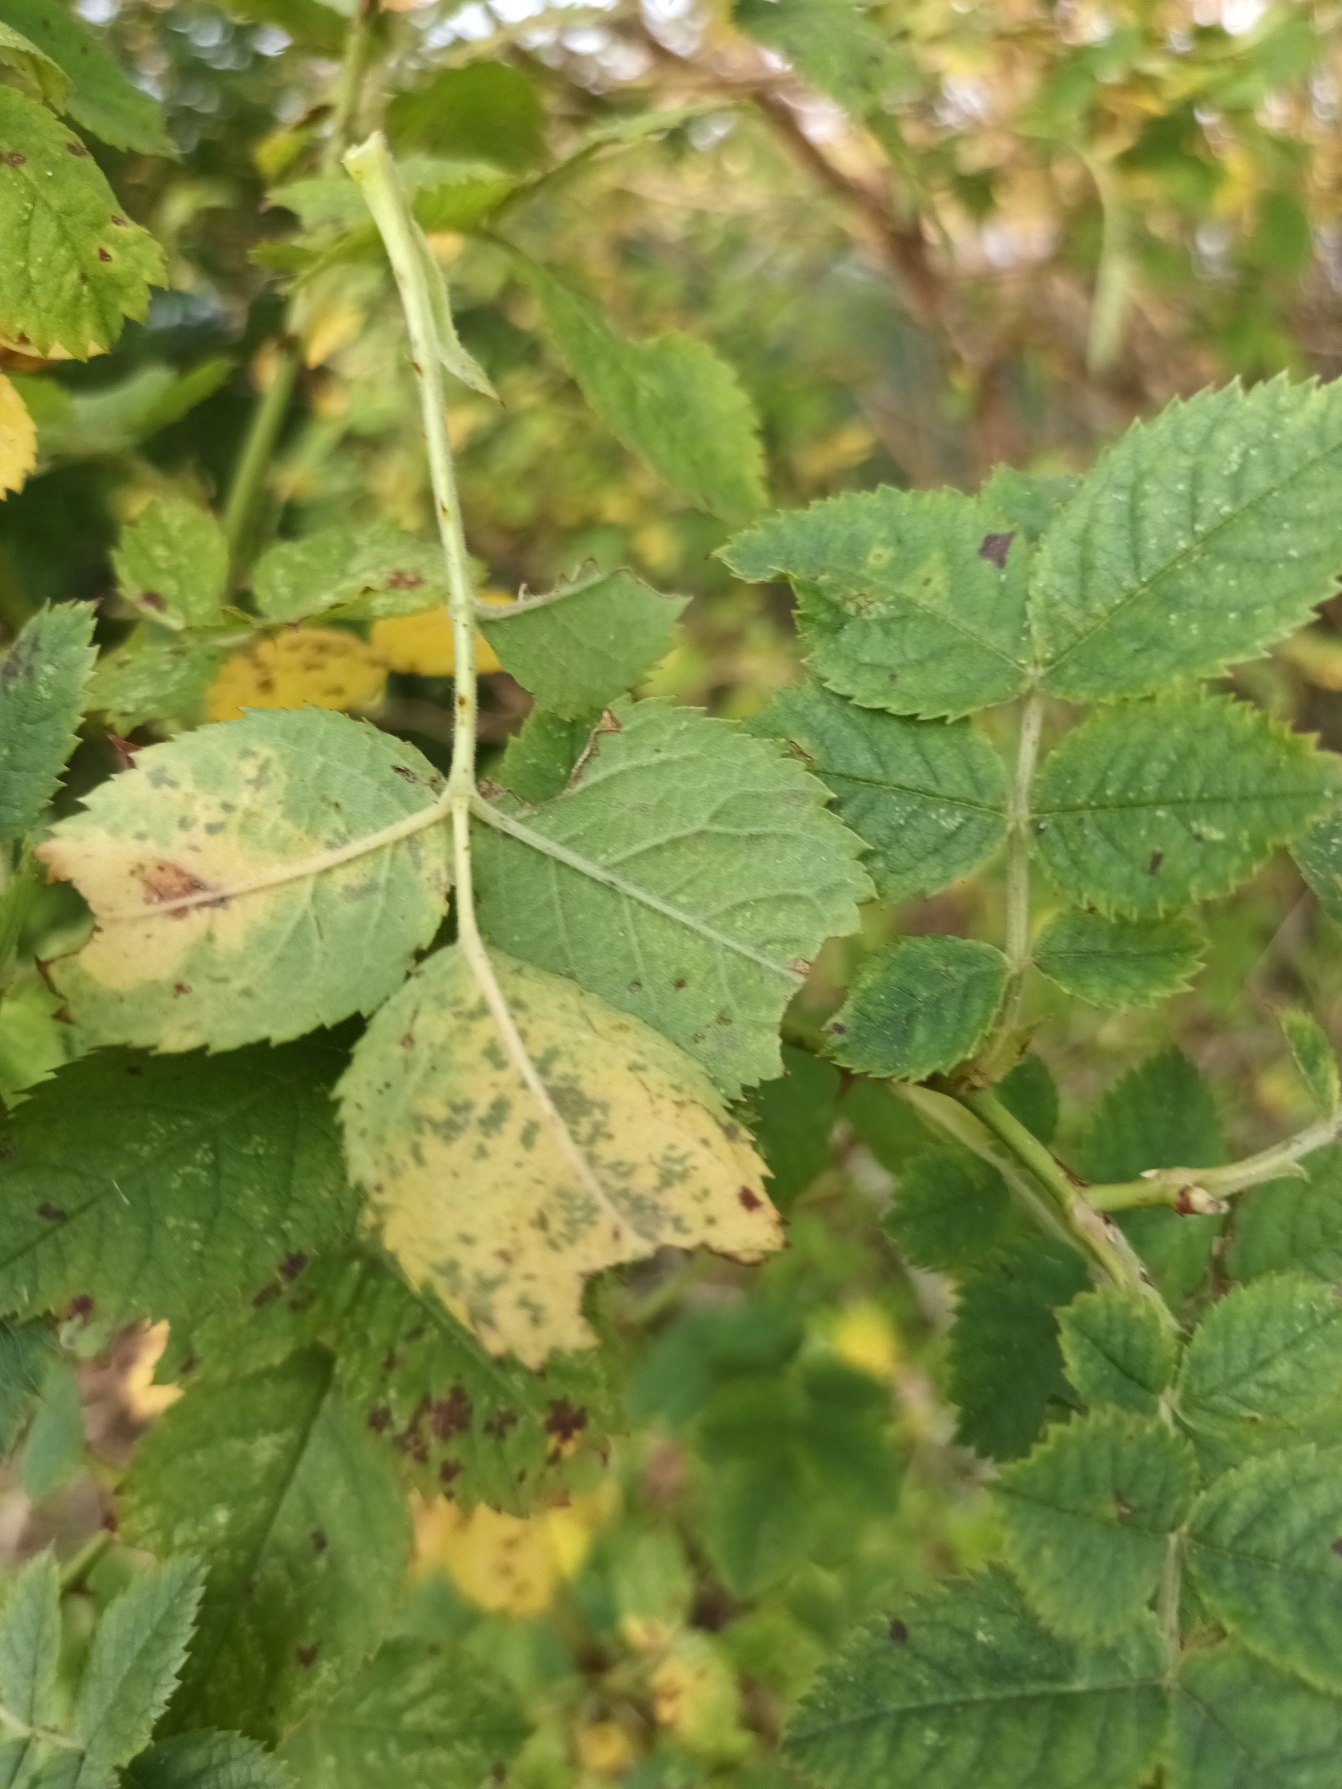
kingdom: Plantae
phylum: Tracheophyta
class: Magnoliopsida
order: Rosales
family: Rosaceae
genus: Rosa
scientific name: Rosa corymbifera
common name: Håret hunde-rose
